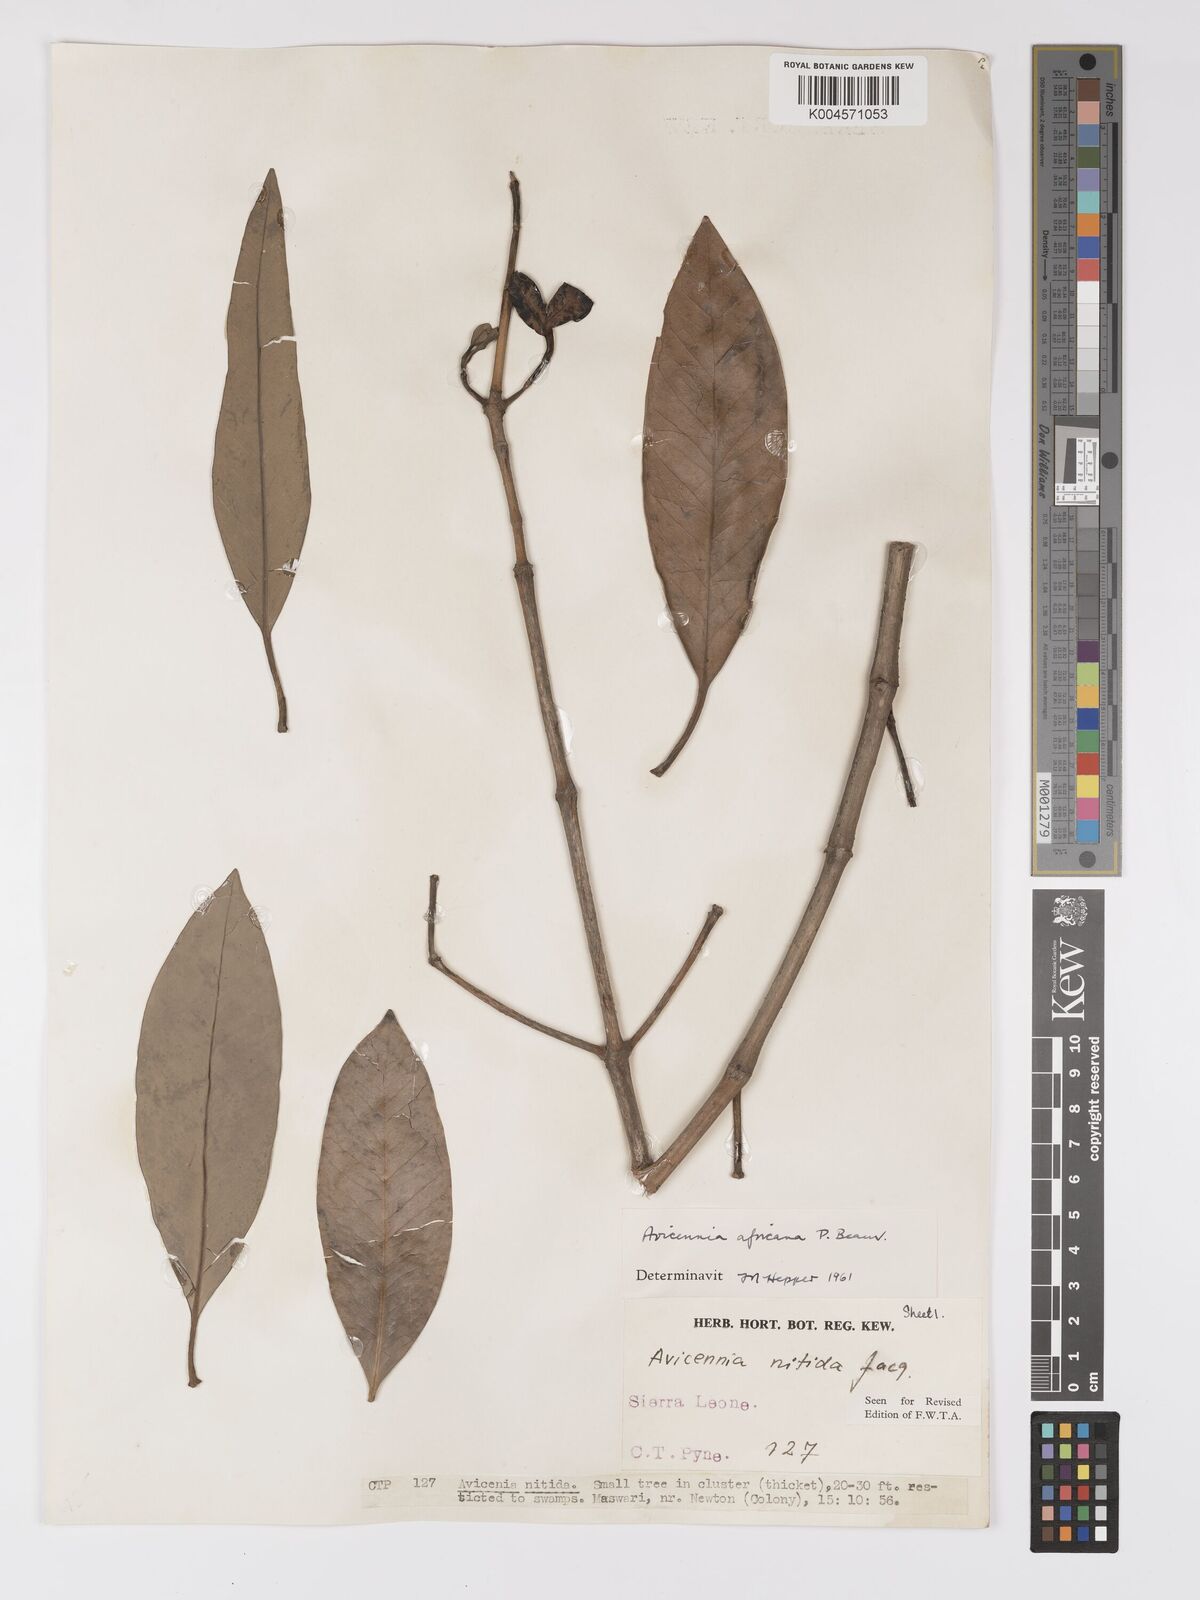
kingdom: Plantae
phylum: Tracheophyta
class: Magnoliopsida
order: Lamiales
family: Acanthaceae
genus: Avicennia
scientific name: Avicennia germinans
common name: Black mangrove
